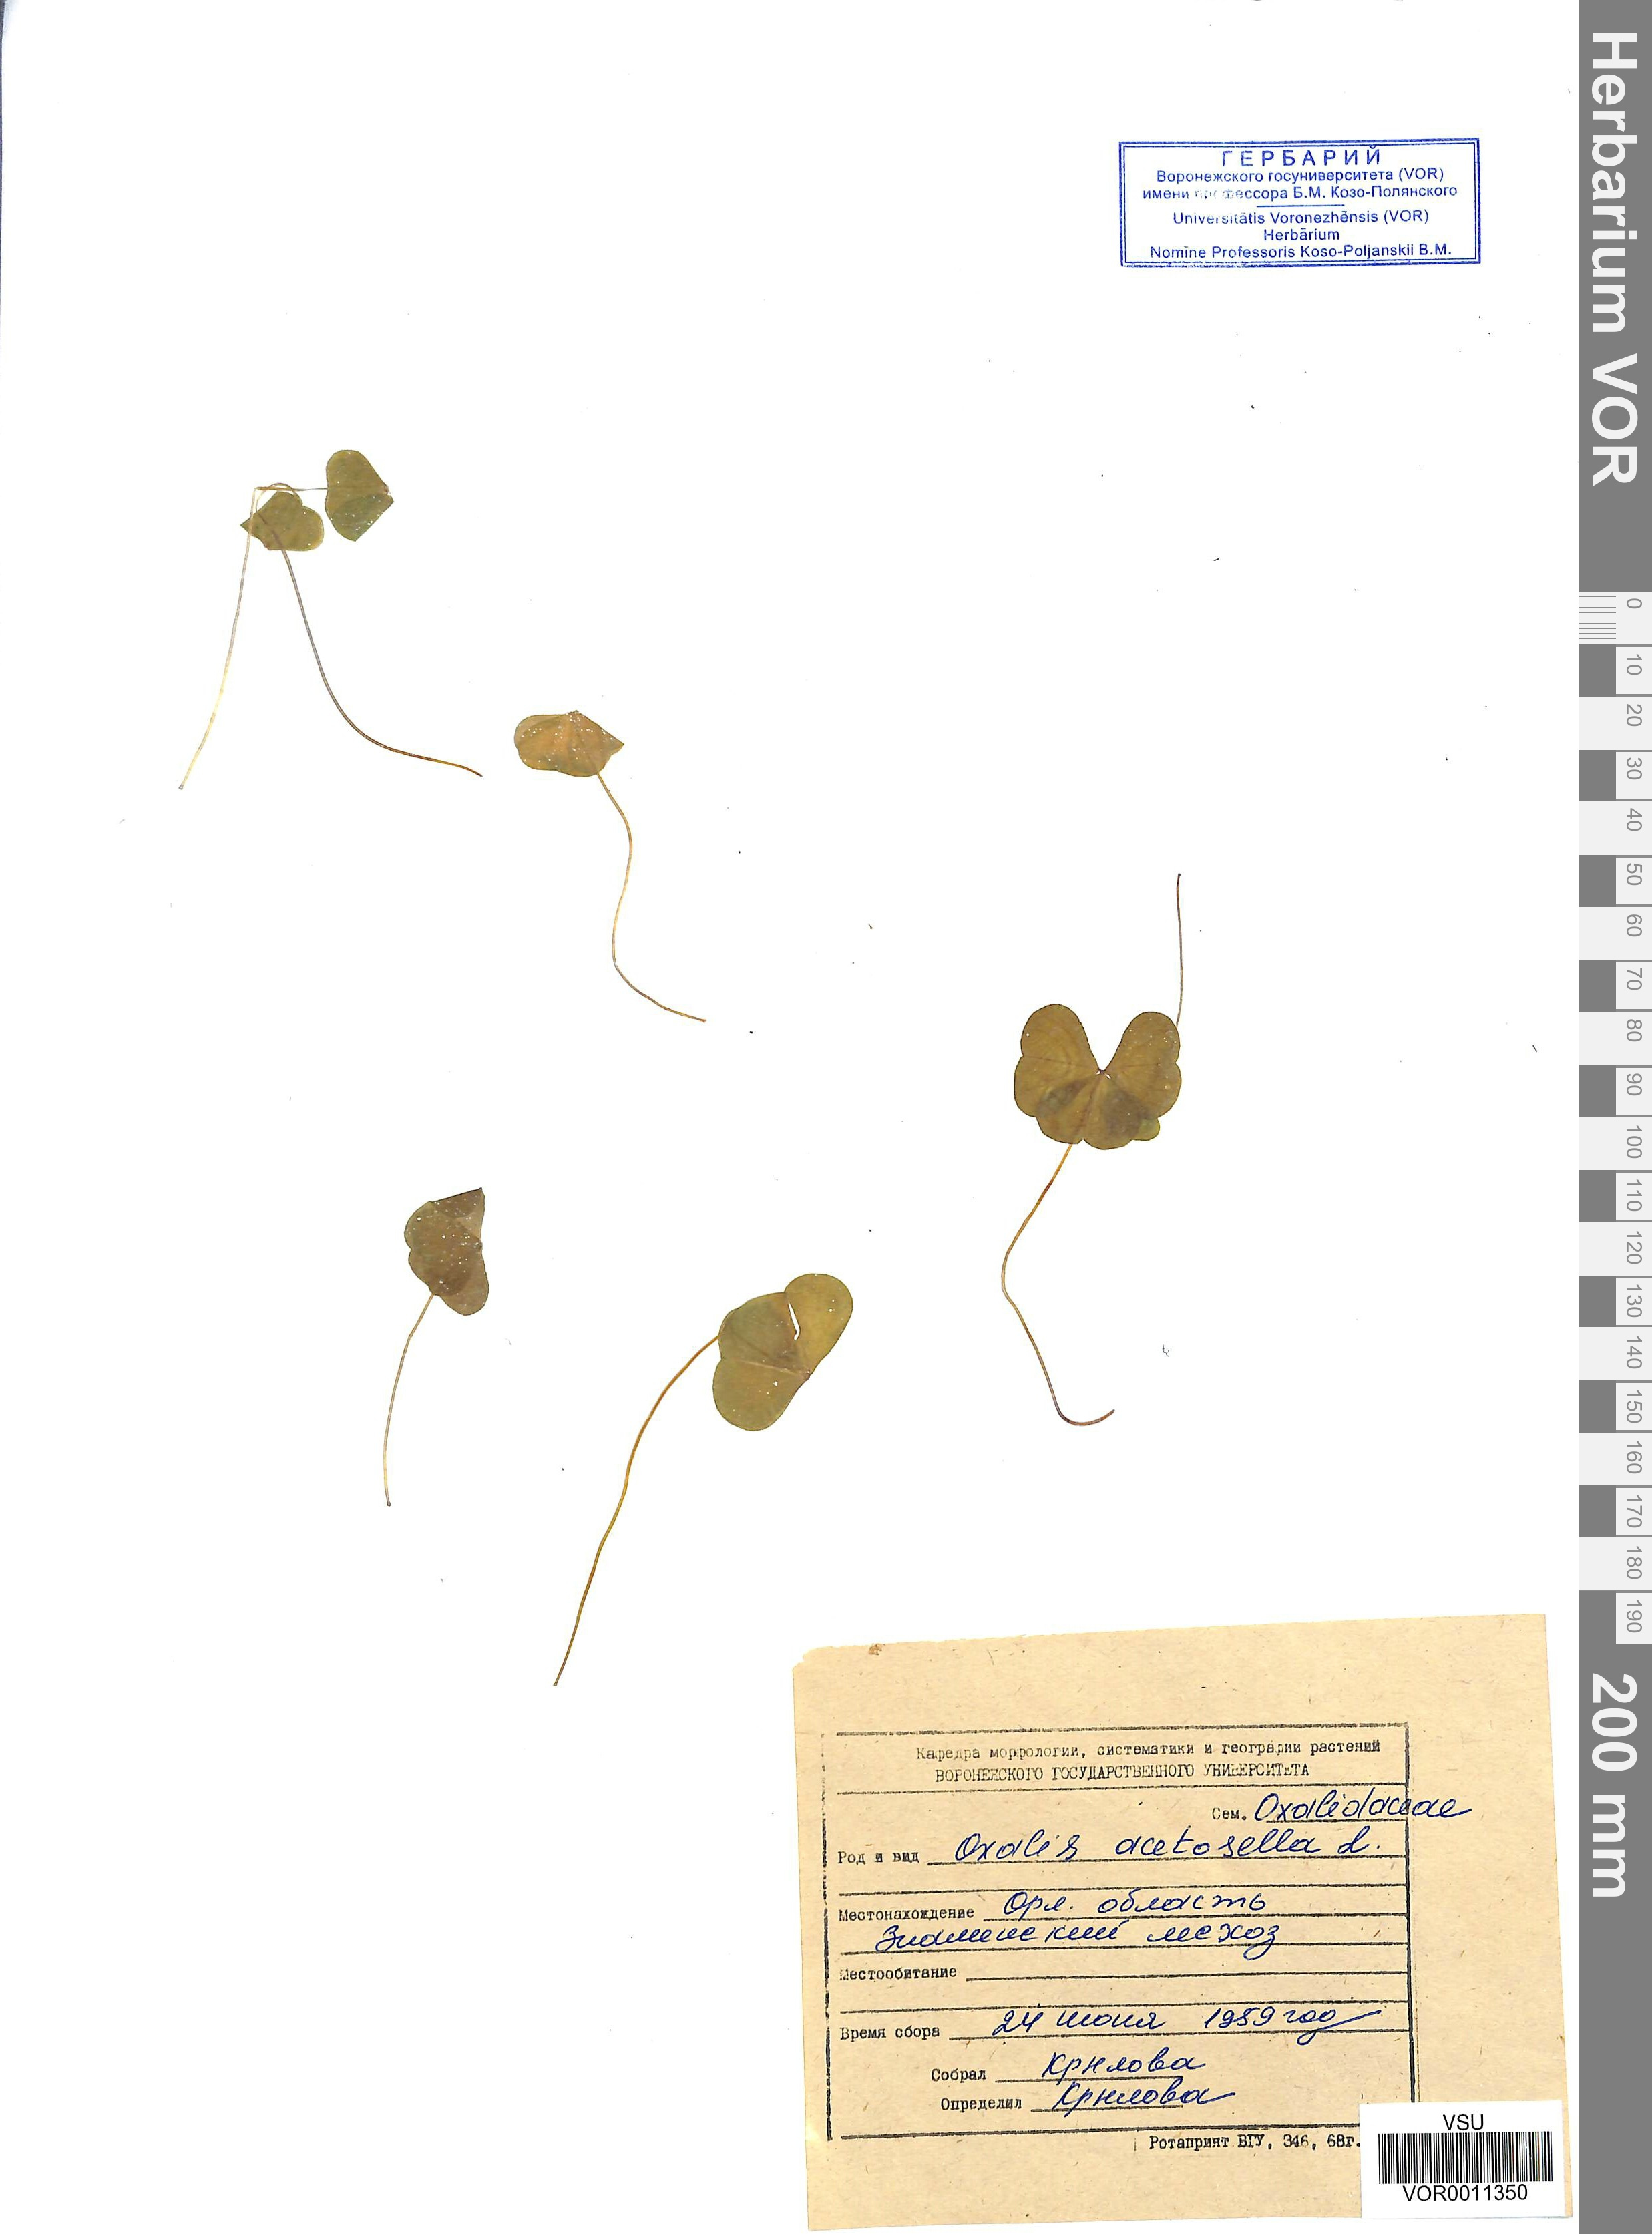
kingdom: Plantae
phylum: Tracheophyta
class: Magnoliopsida
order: Oxalidales
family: Oxalidaceae
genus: Oxalis
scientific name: Oxalis acetosella
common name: Wood-sorrel
